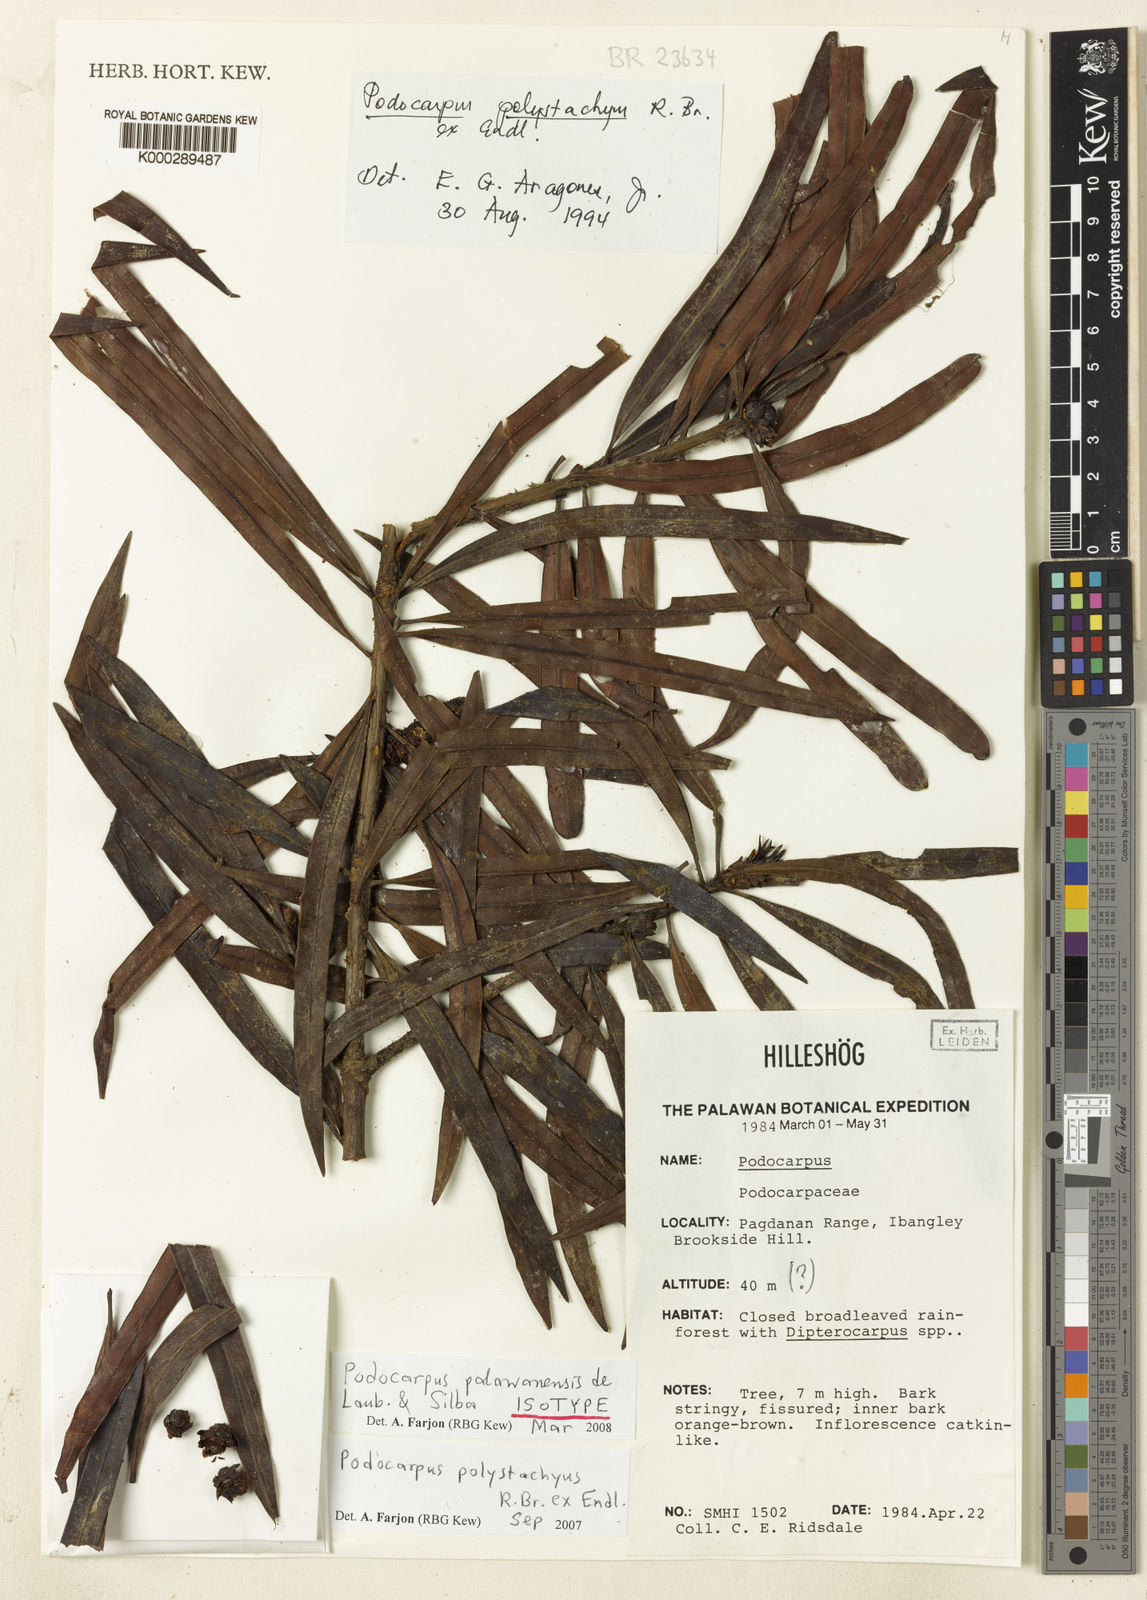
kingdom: Plantae
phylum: Tracheophyta
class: Pinopsida
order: Pinales
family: Podocarpaceae
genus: Podocarpus
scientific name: Podocarpus palawanensis
